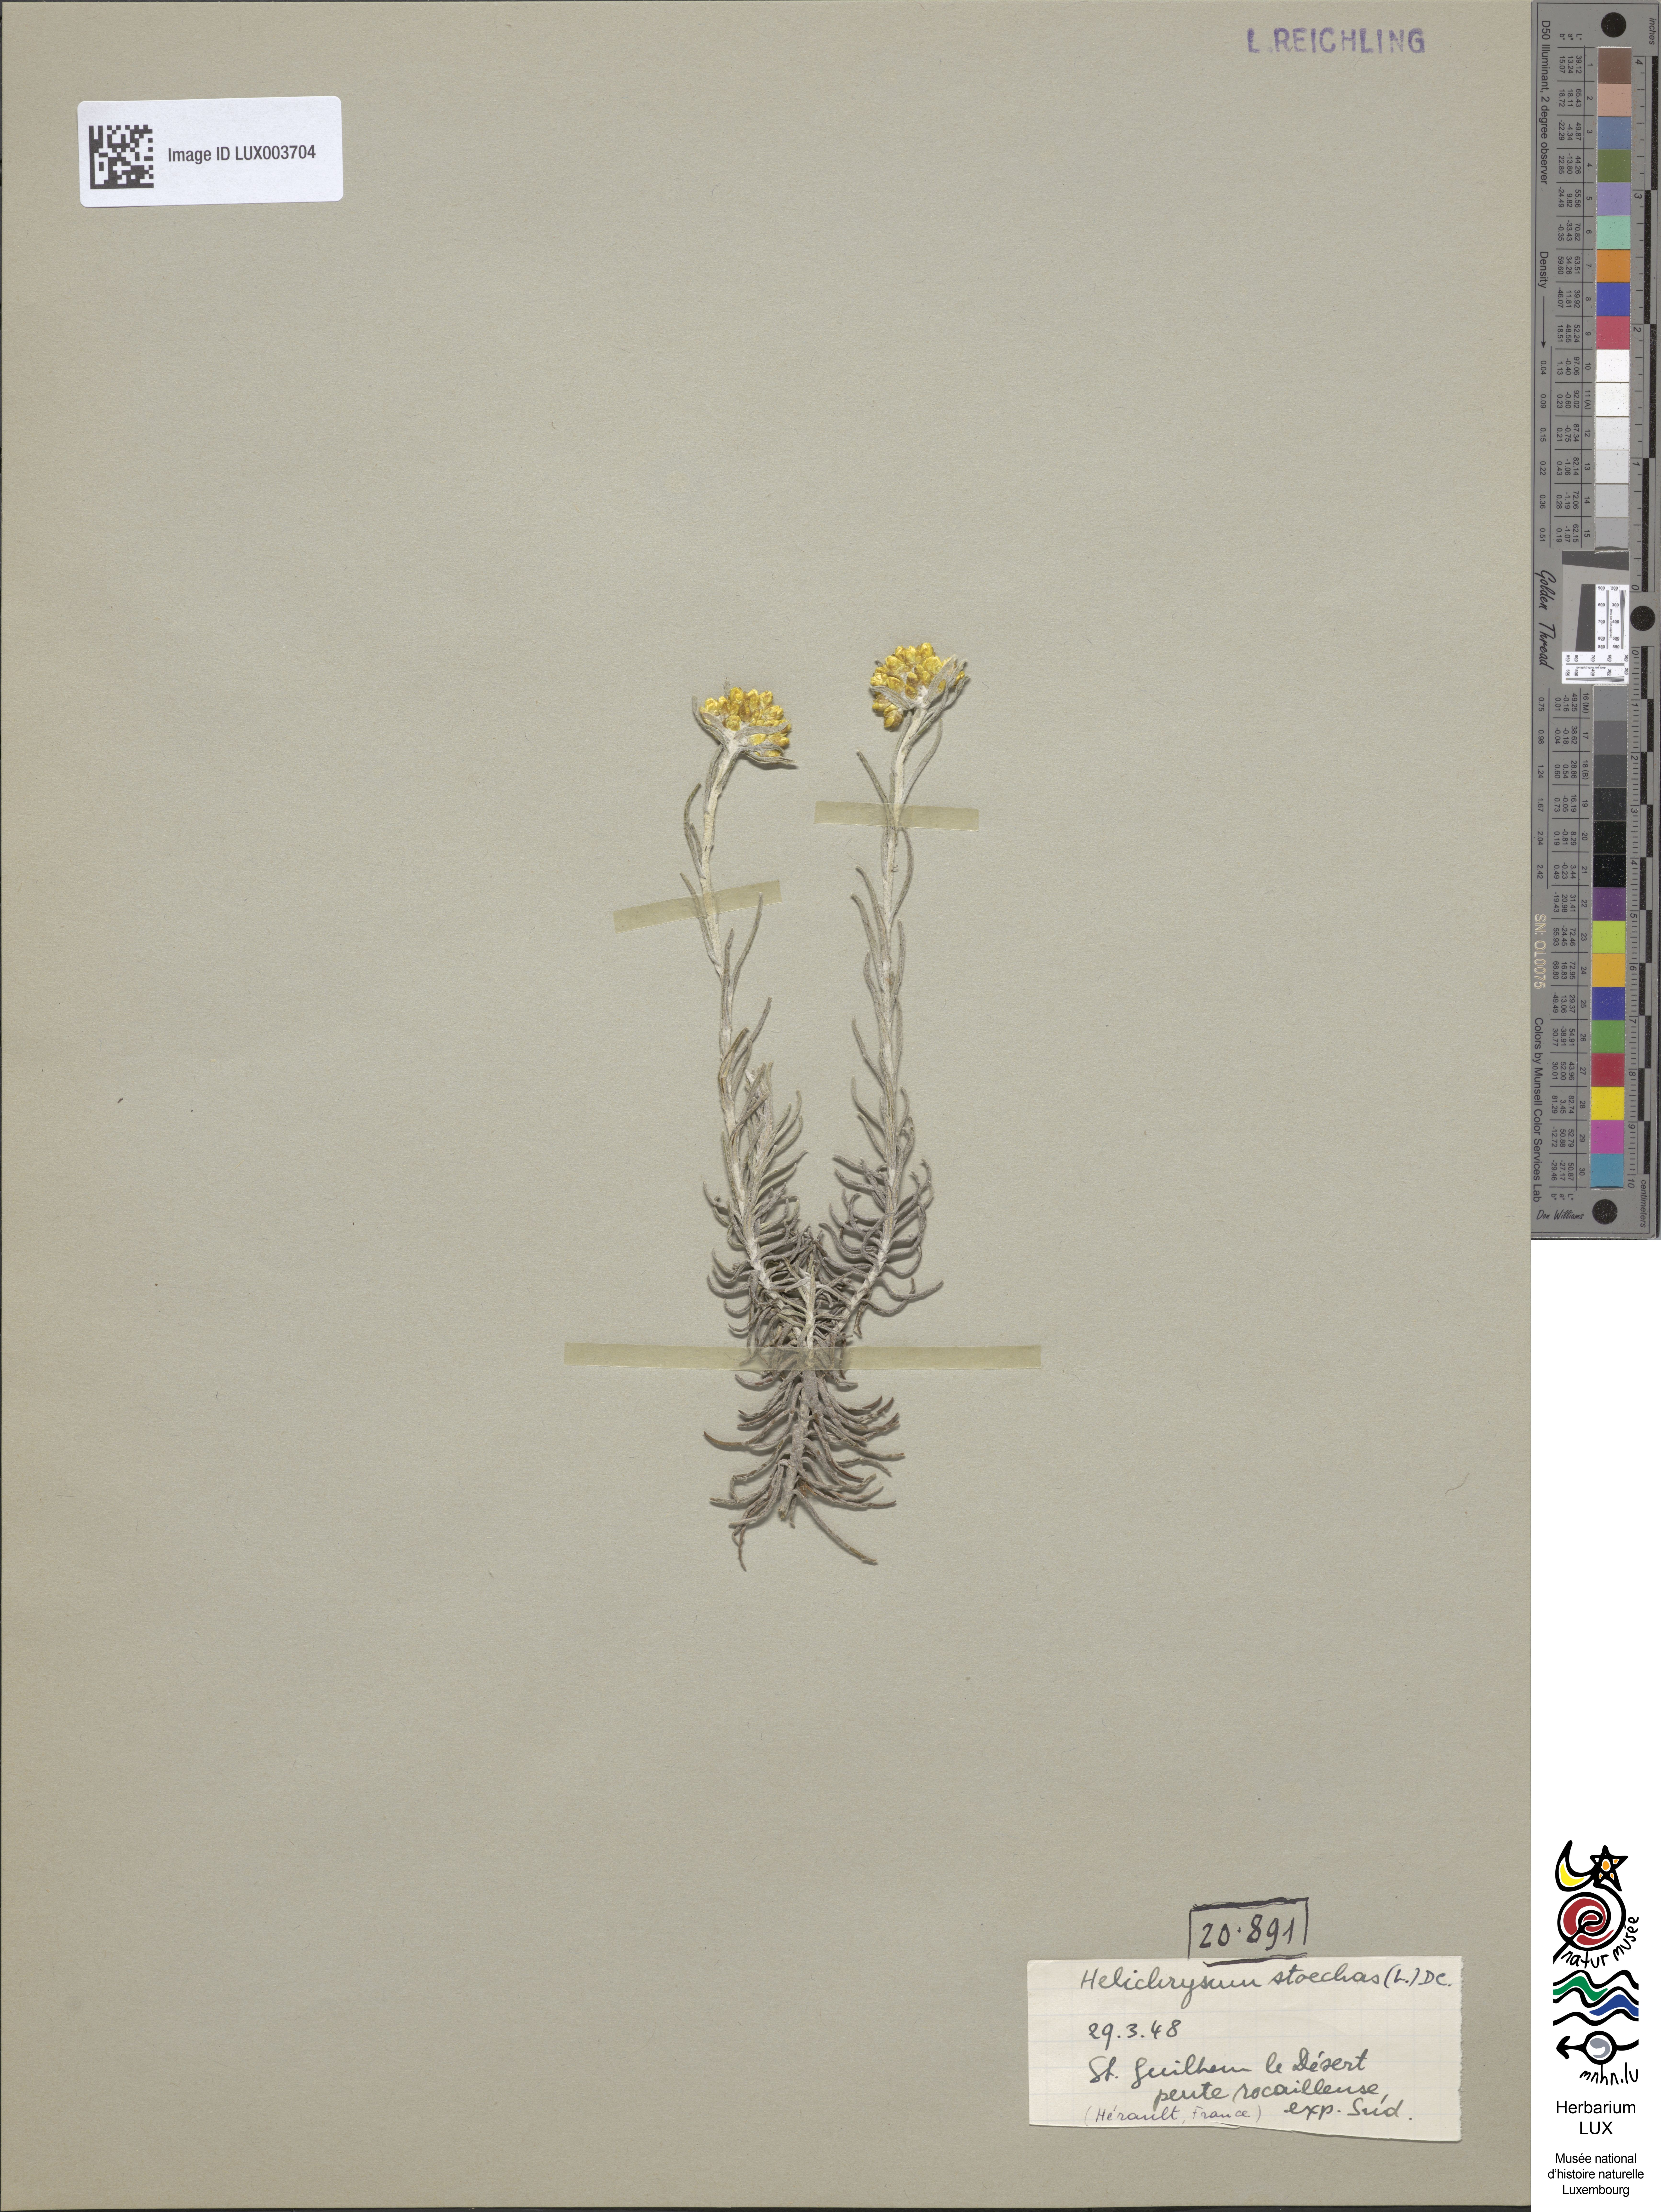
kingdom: Plantae
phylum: Tracheophyta
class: Magnoliopsida
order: Asterales
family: Asteraceae
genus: Helichrysum
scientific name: Helichrysum stoechas
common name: Goldilocks
